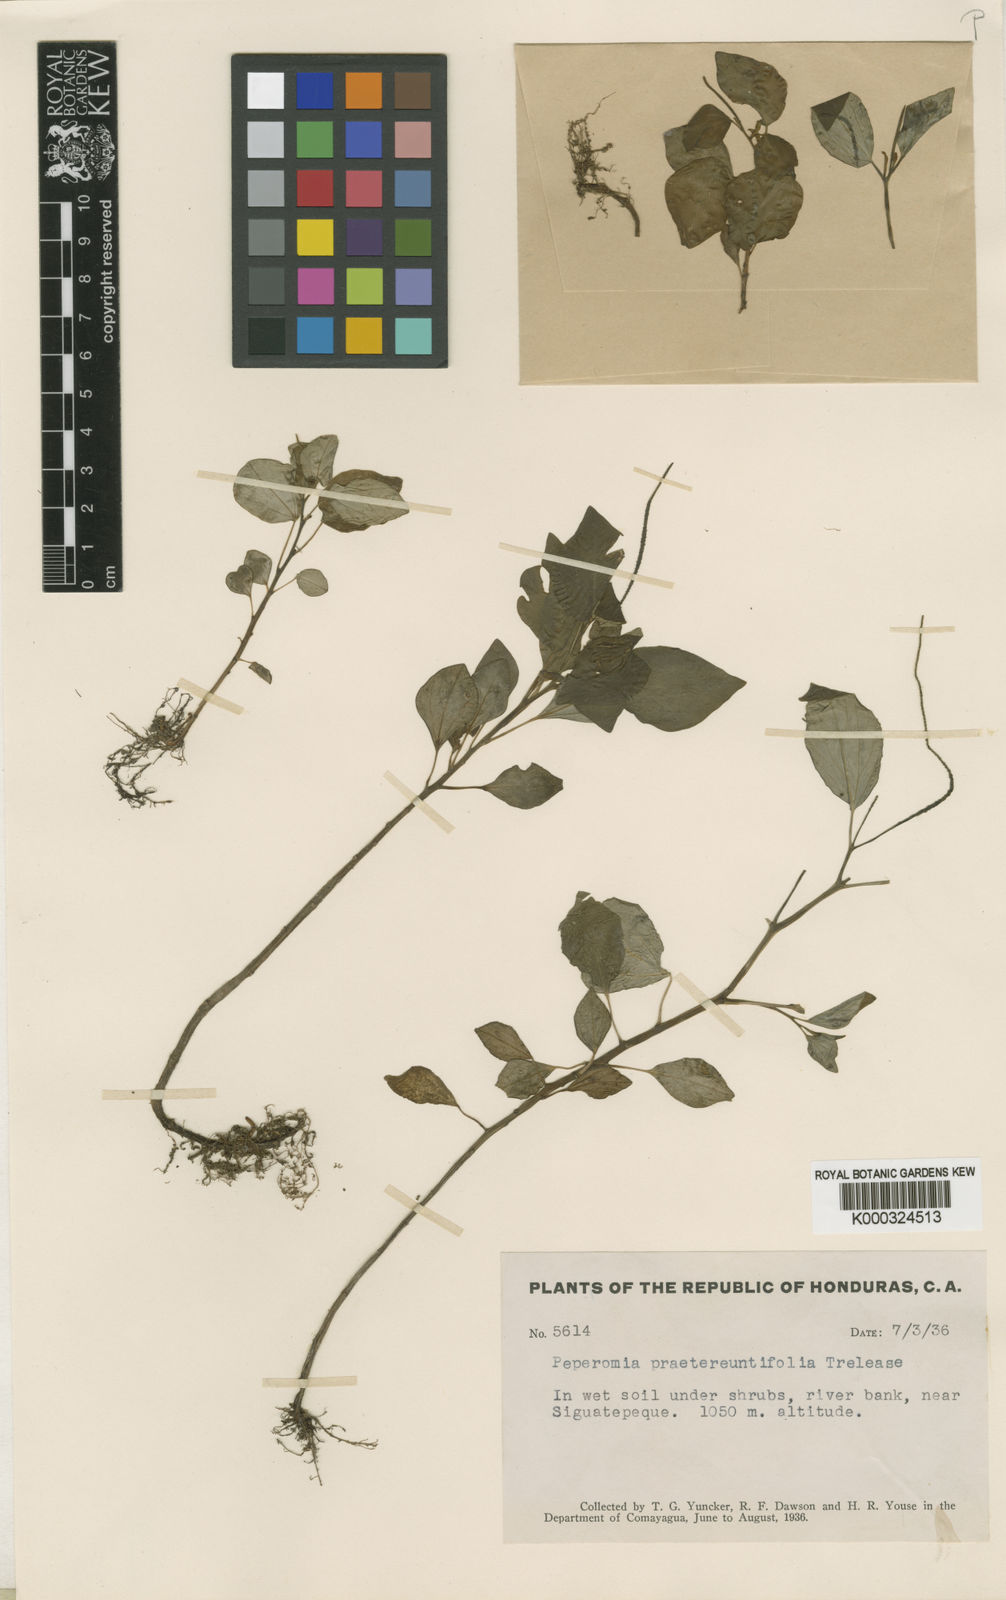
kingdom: Plantae
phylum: Tracheophyta
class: Magnoliopsida
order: Piperales
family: Piperaceae
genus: Peperomia
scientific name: Peperomia san-carlosiana
